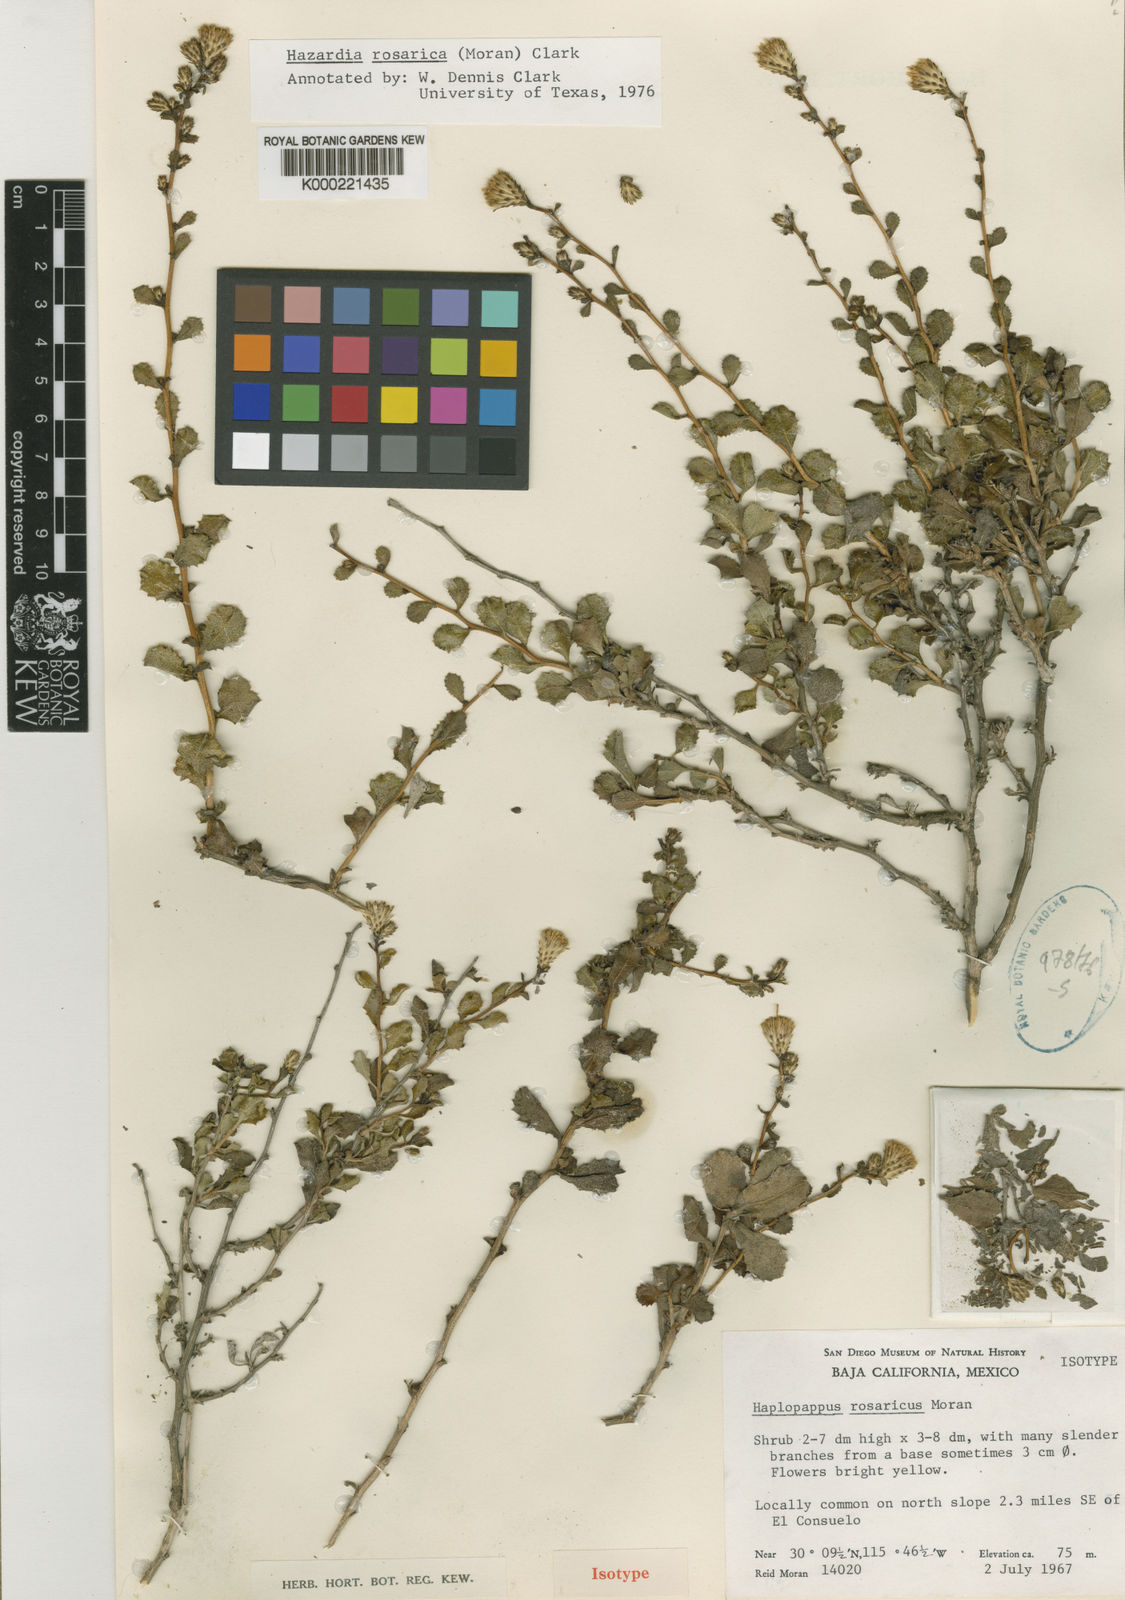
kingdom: Plantae
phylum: Tracheophyta
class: Magnoliopsida
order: Asterales
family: Asteraceae
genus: Hazardia
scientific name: Hazardia rosarica
